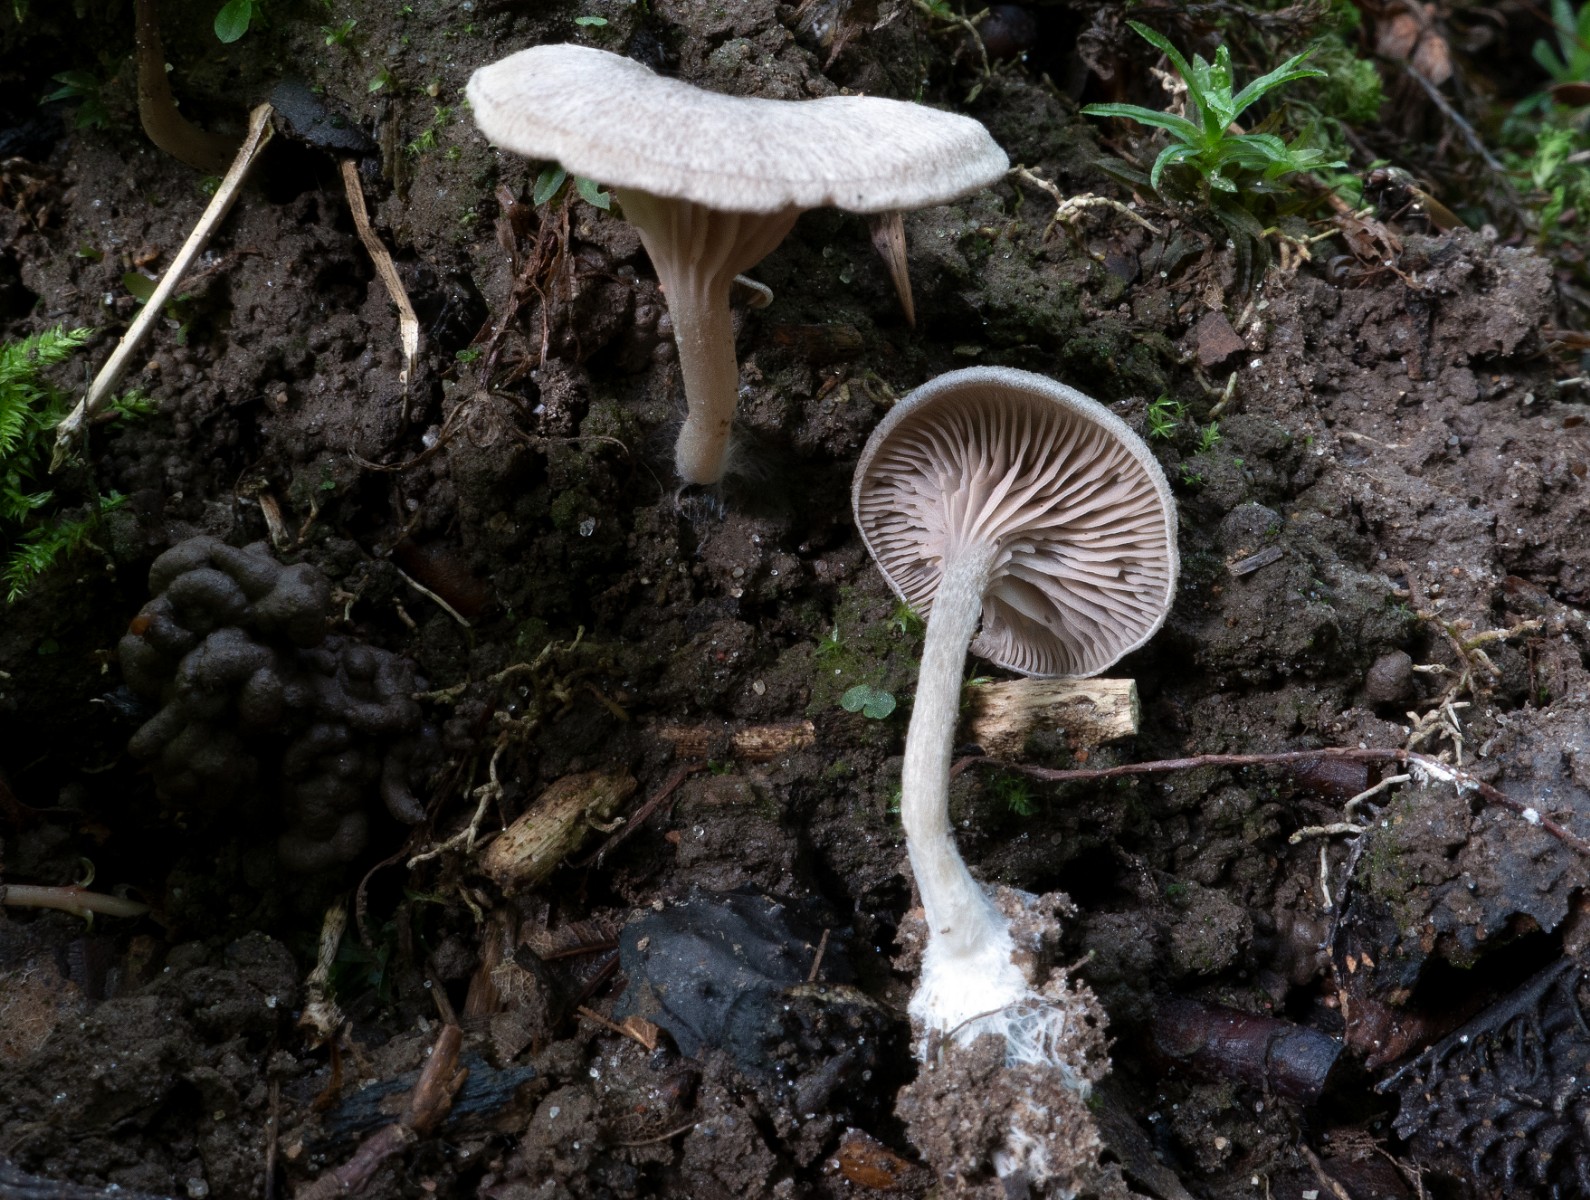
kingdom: Fungi
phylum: Basidiomycota
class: Agaricomycetes
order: Agaricales
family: Entolomataceae
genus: Entoloma
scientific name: Entoloma undatum
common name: bæltet rødblad
